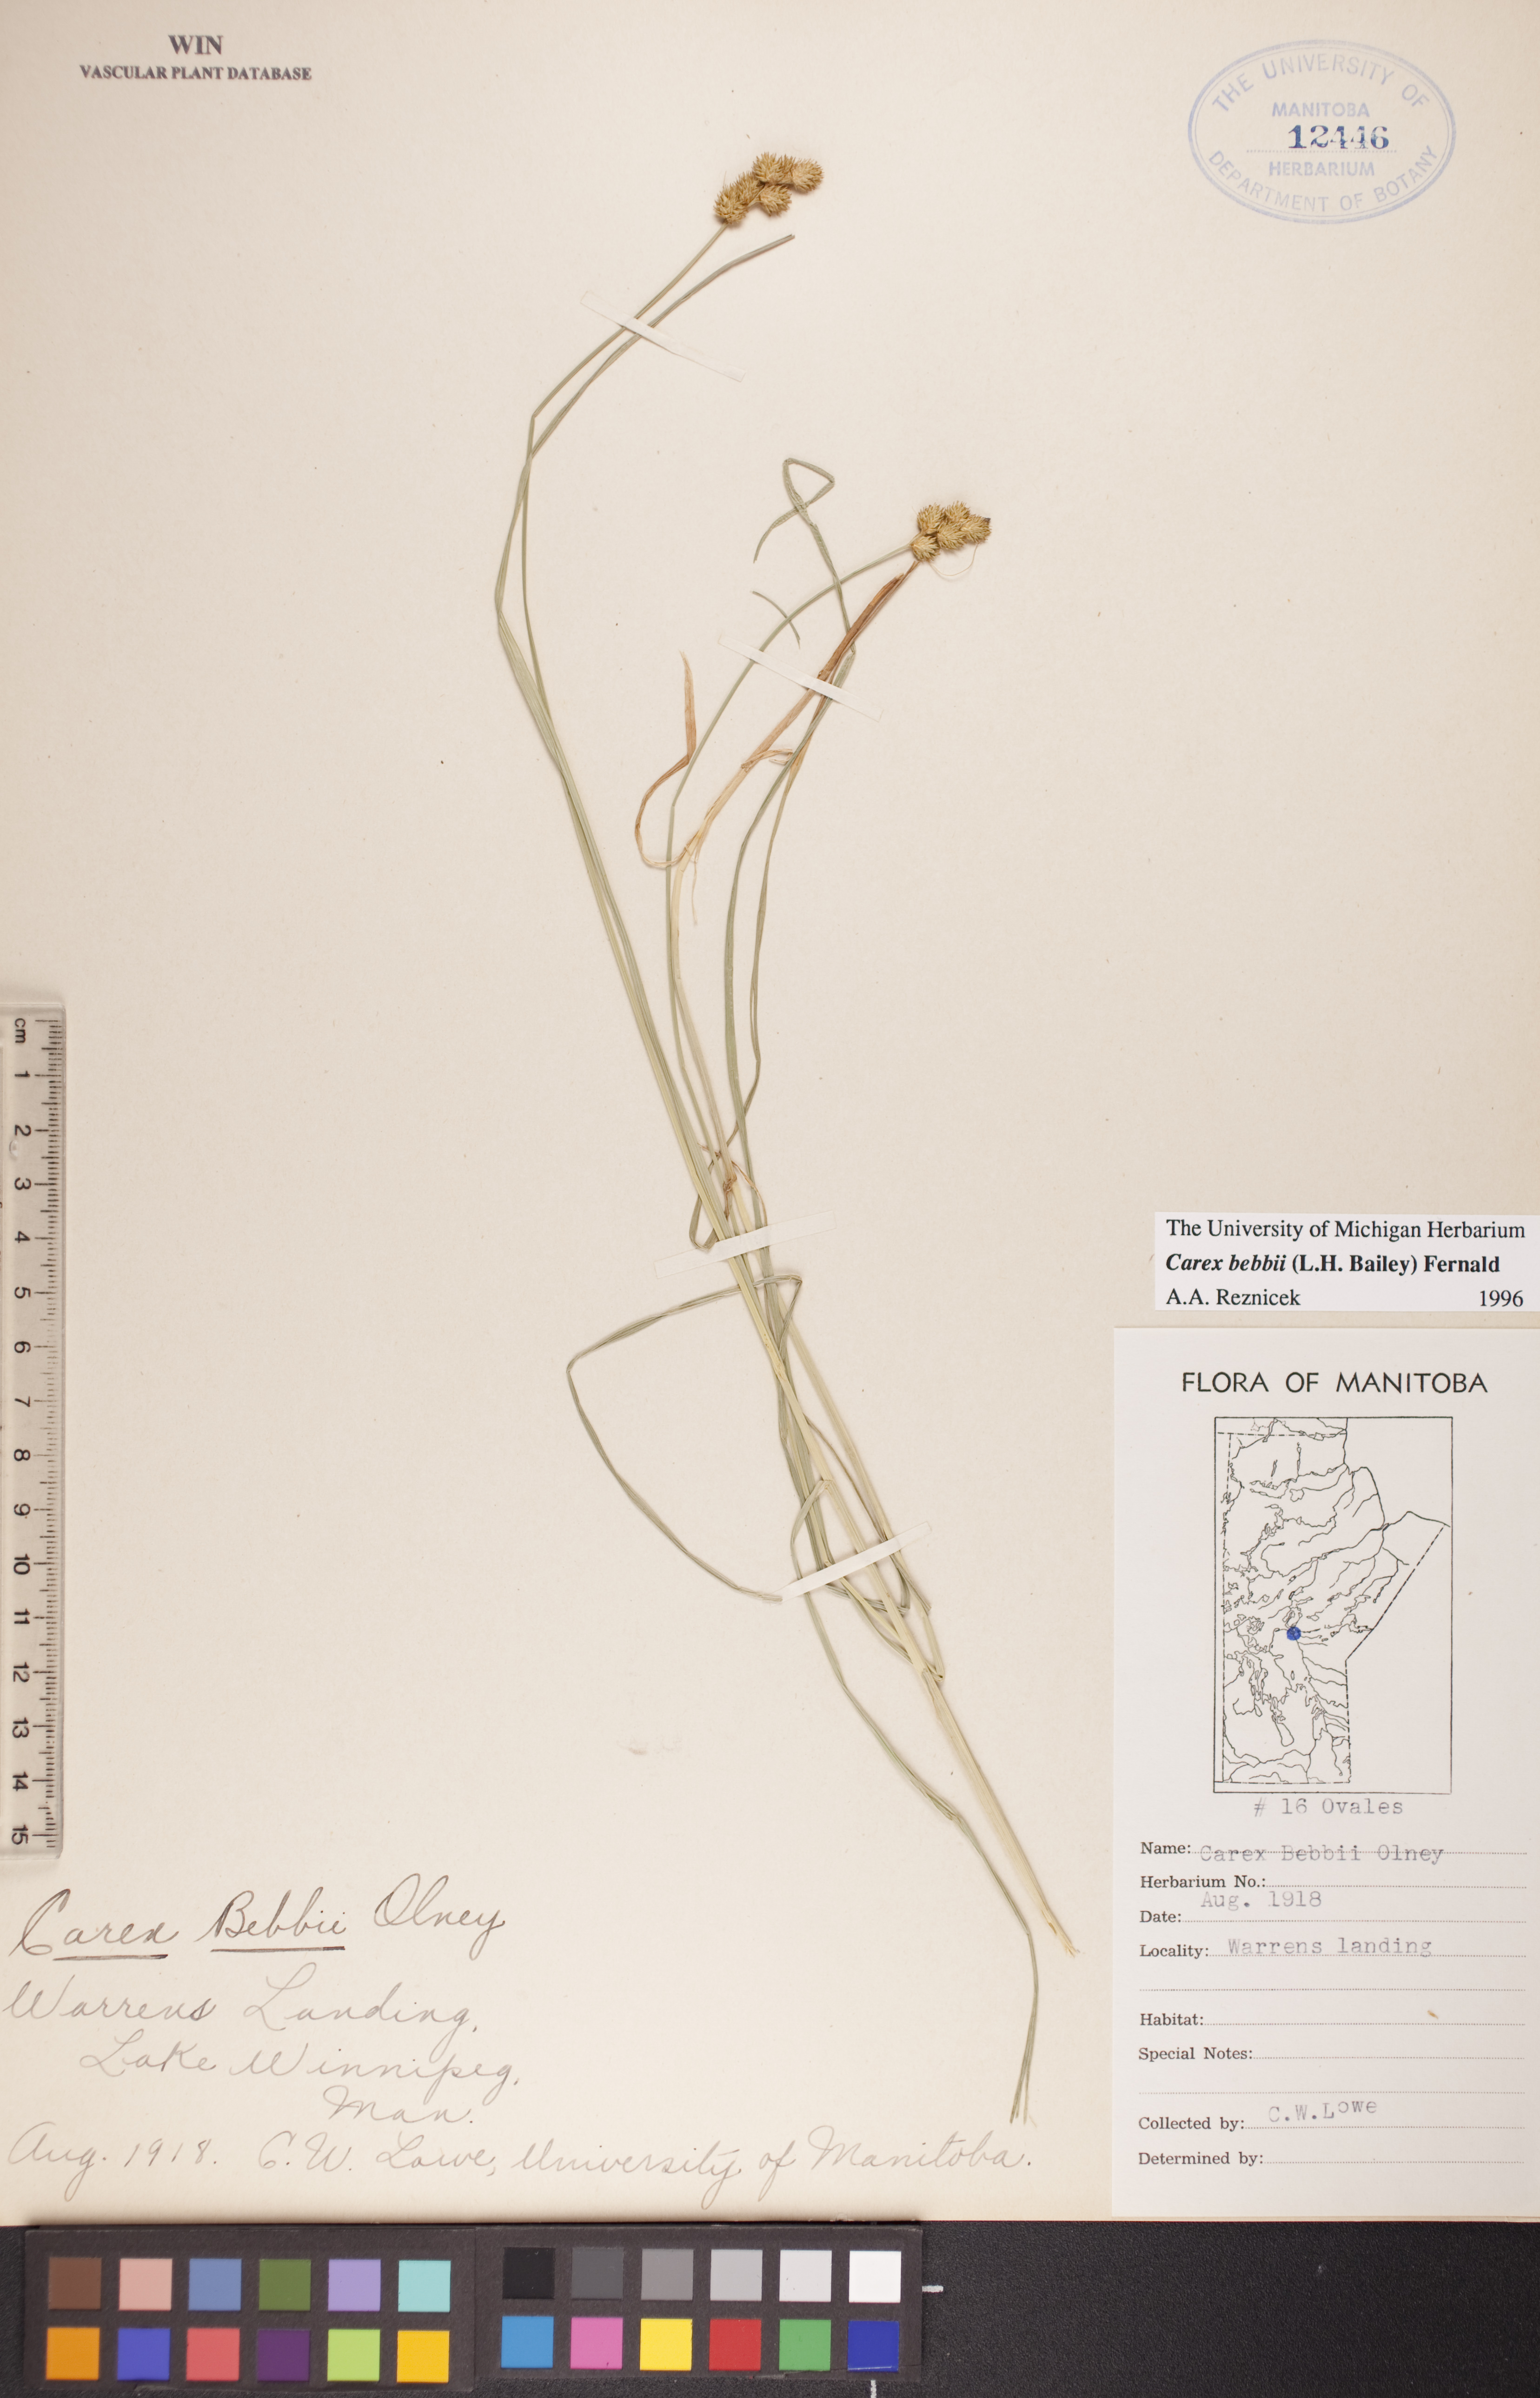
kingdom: Plantae
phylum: Tracheophyta
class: Liliopsida
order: Poales
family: Cyperaceae
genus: Carex
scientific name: Carex bebbii
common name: Bebb's sedge
